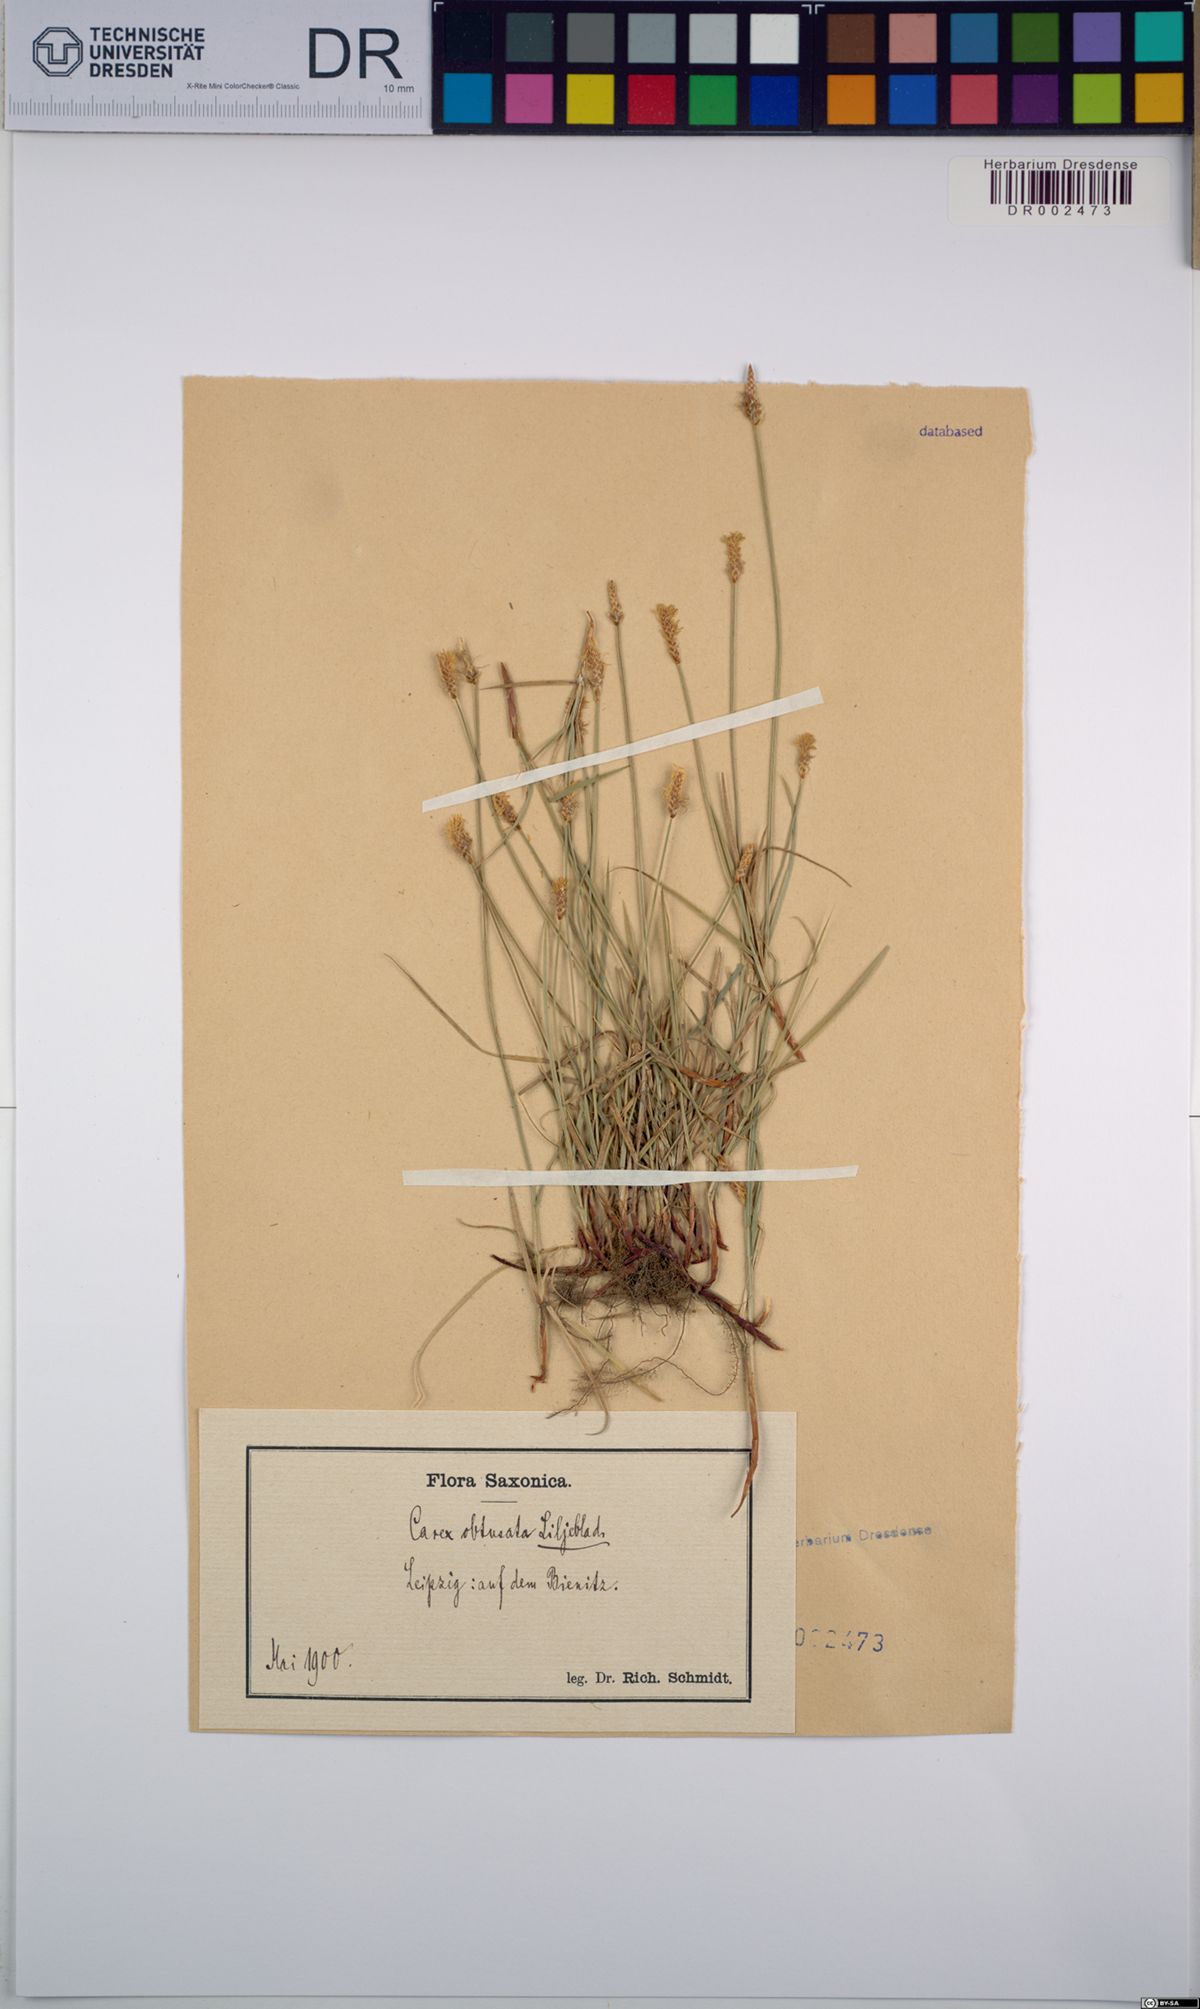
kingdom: Plantae
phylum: Tracheophyta
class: Liliopsida
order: Poales
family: Cyperaceae
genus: Carex
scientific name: Carex obtusata
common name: Blunt sedge
